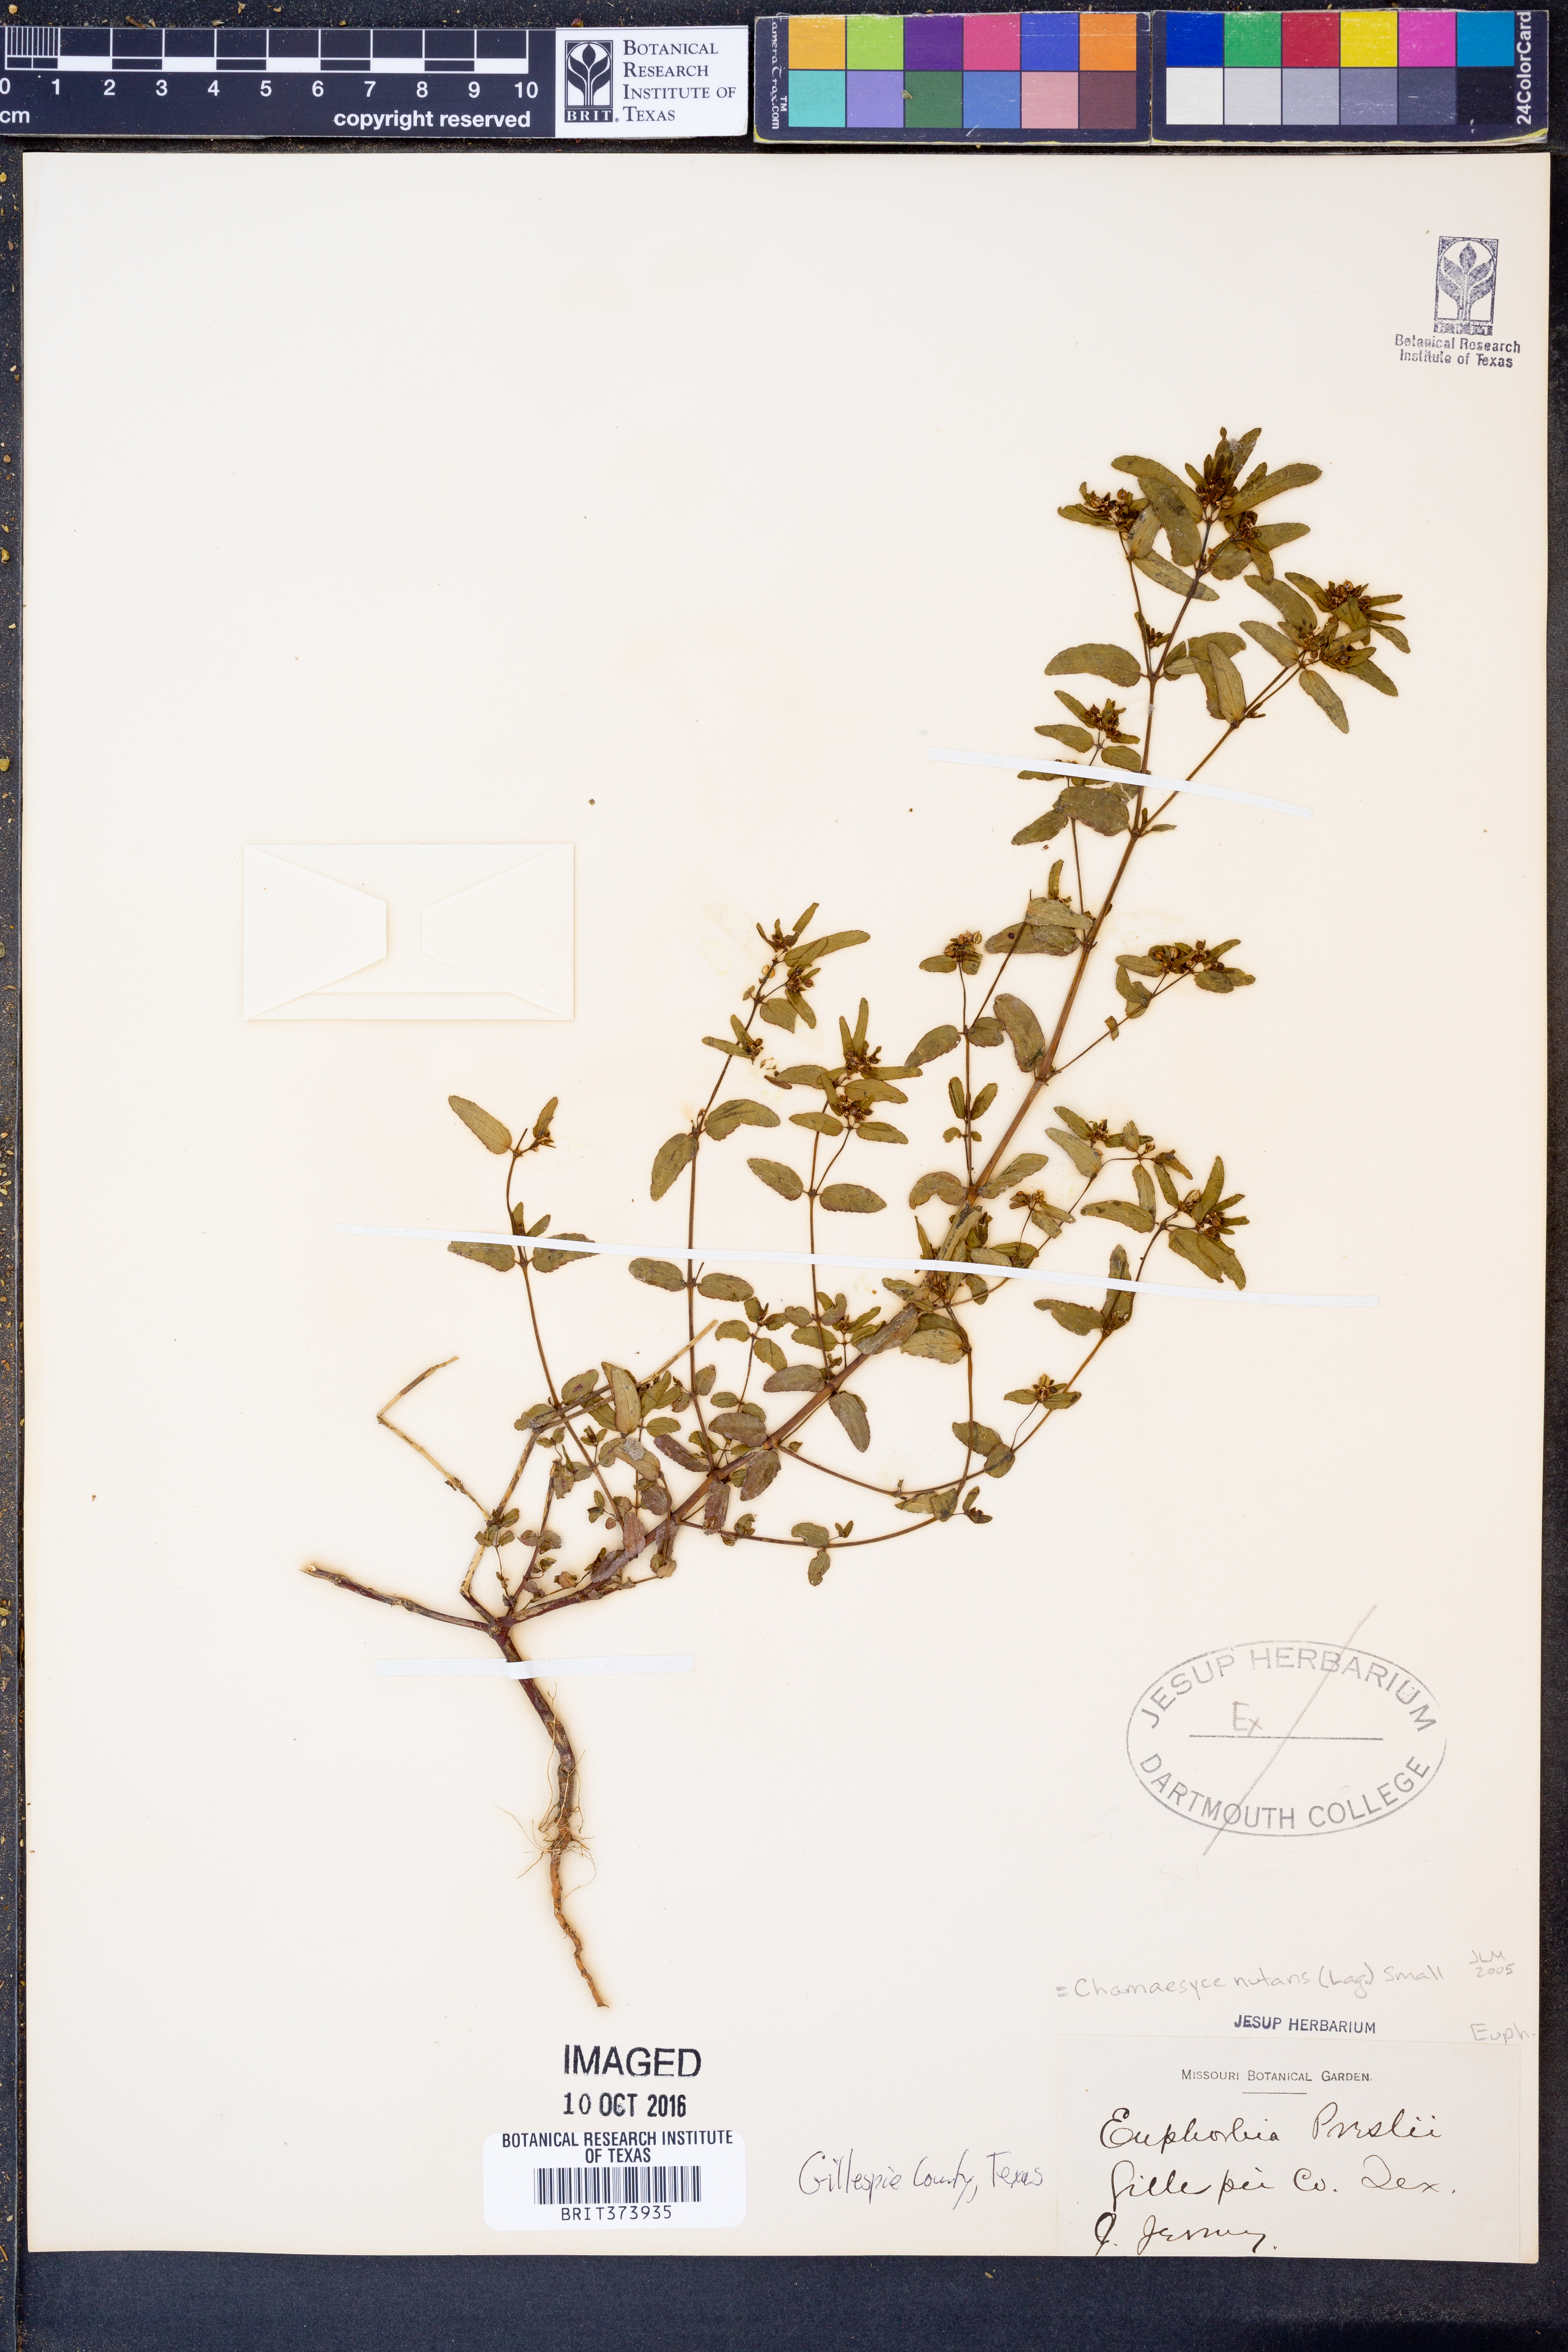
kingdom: Plantae
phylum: Tracheophyta
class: Magnoliopsida
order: Malpighiales
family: Euphorbiaceae
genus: Euphorbia
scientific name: Euphorbia nutans
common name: Eyebane
